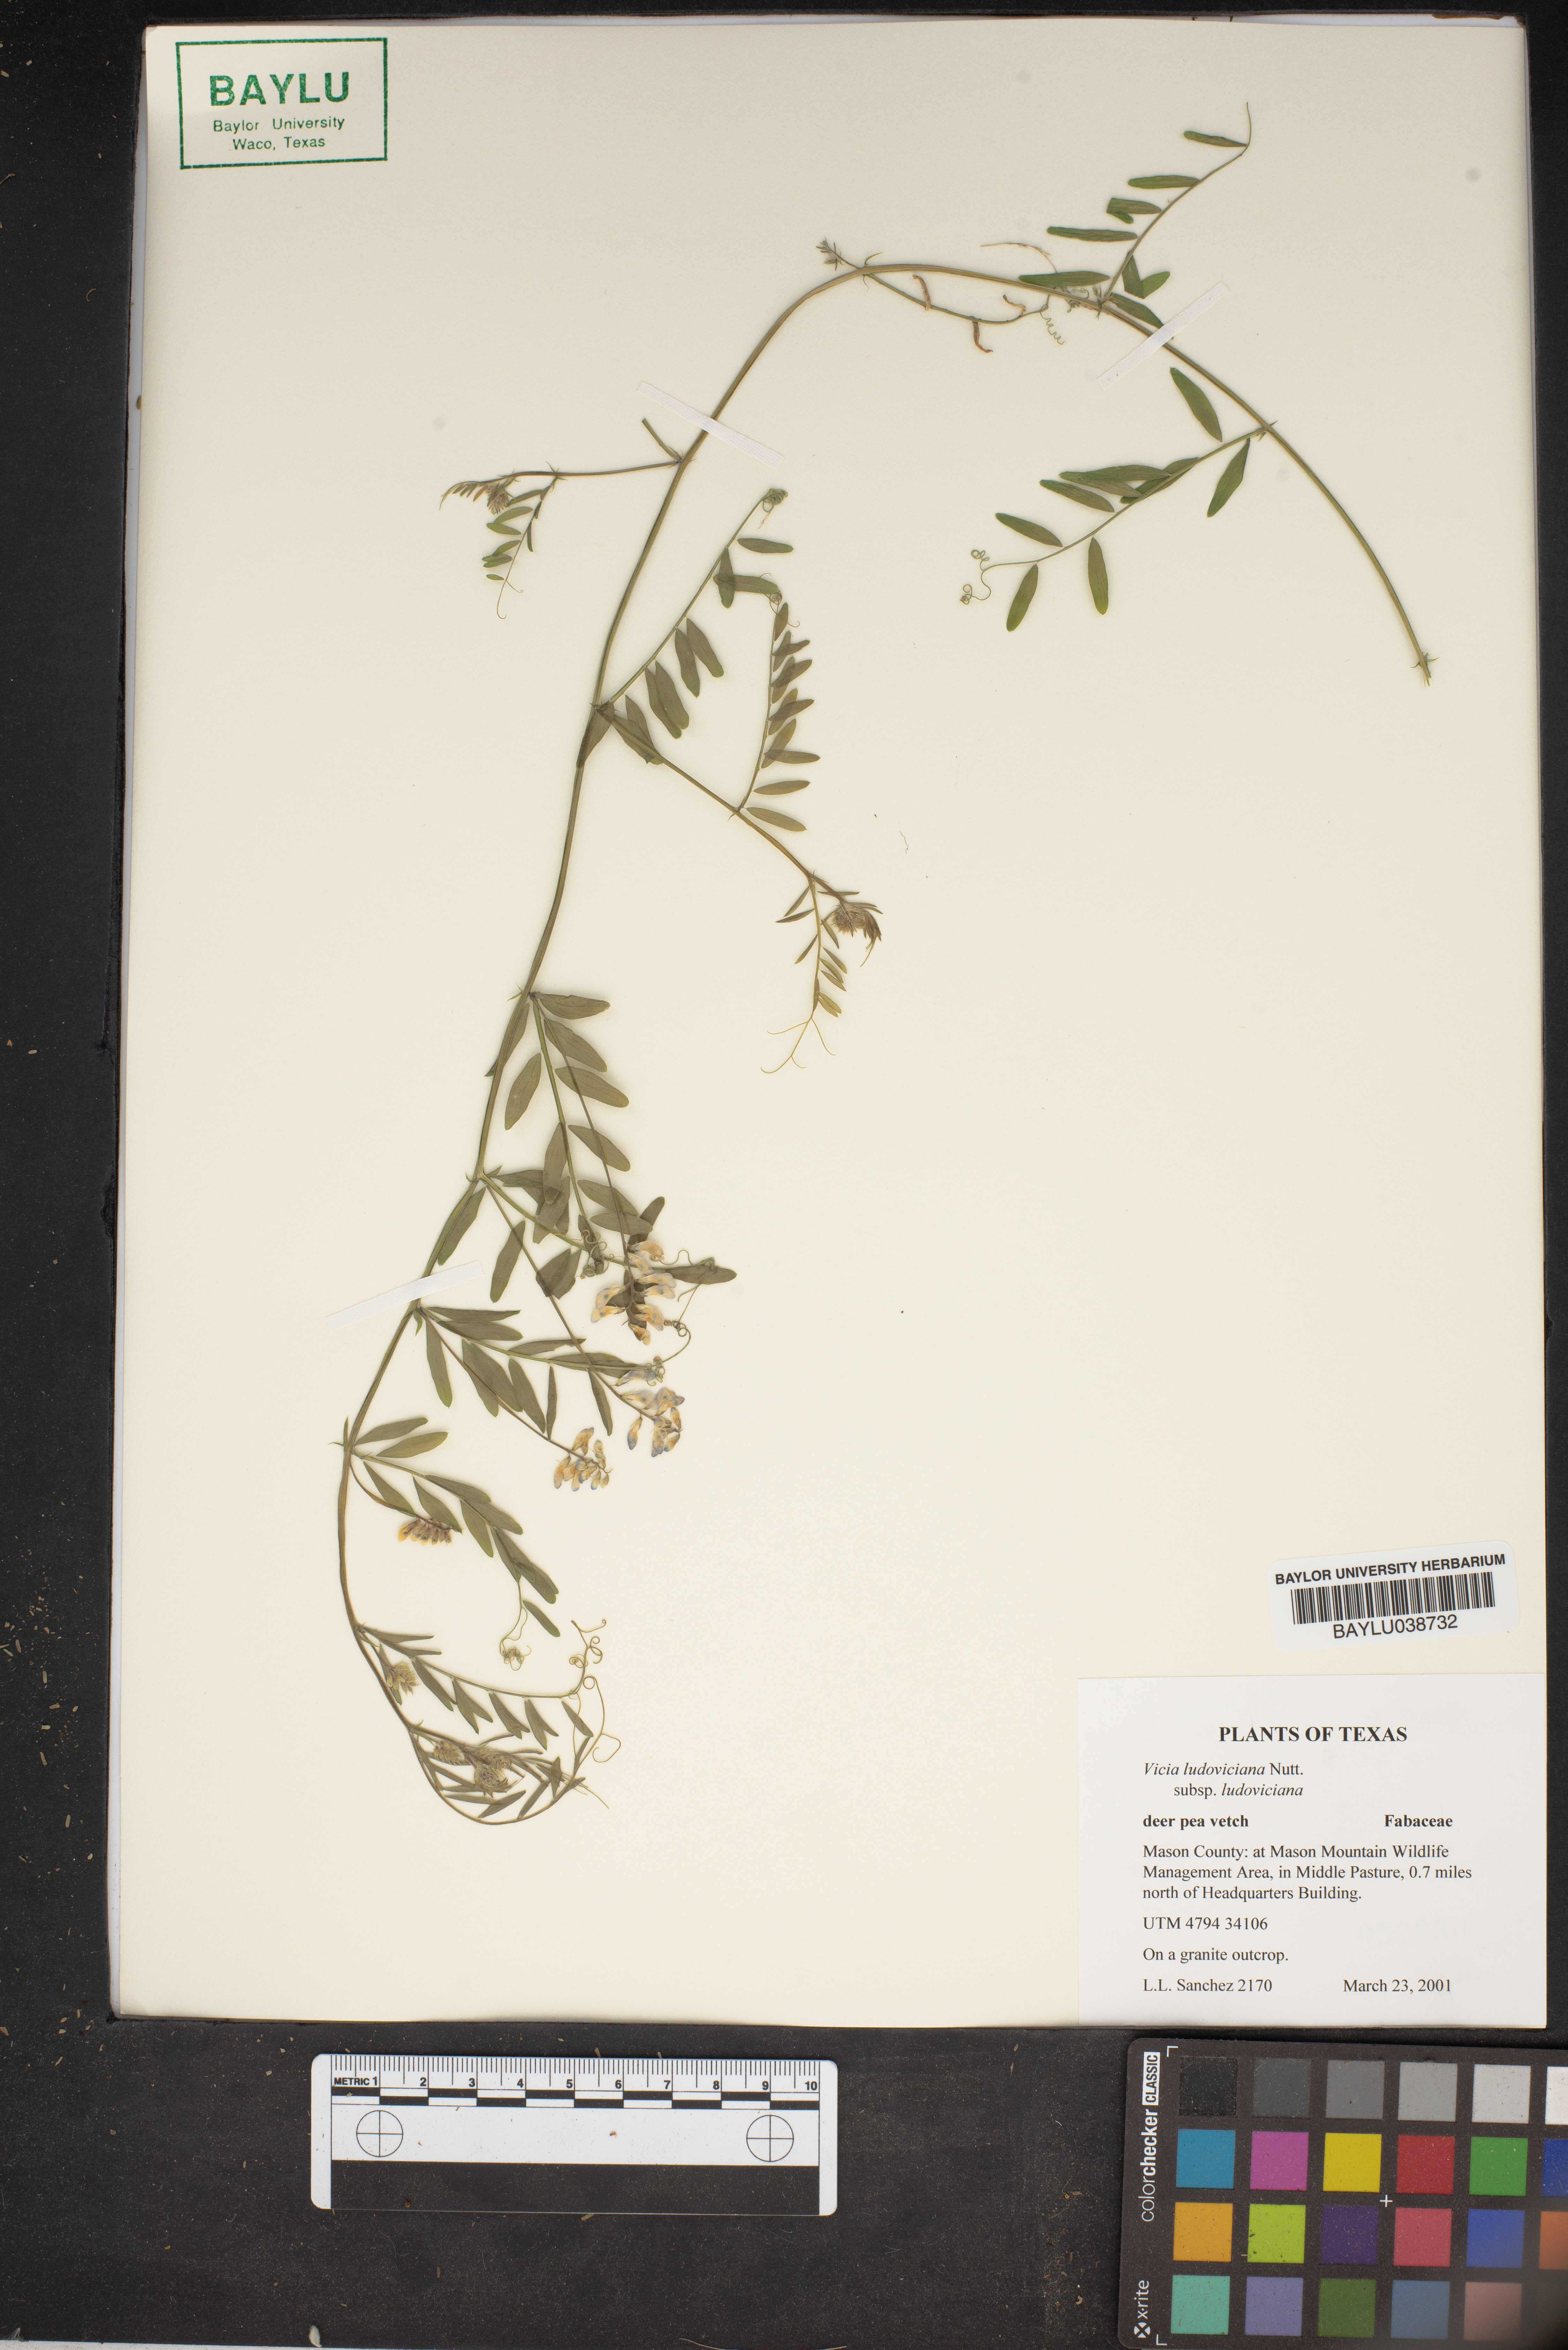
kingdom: Plantae
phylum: Tracheophyta
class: Magnoliopsida
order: Fabales
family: Fabaceae
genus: Vicia
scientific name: Vicia ludoviciana
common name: Louisiana vetch
